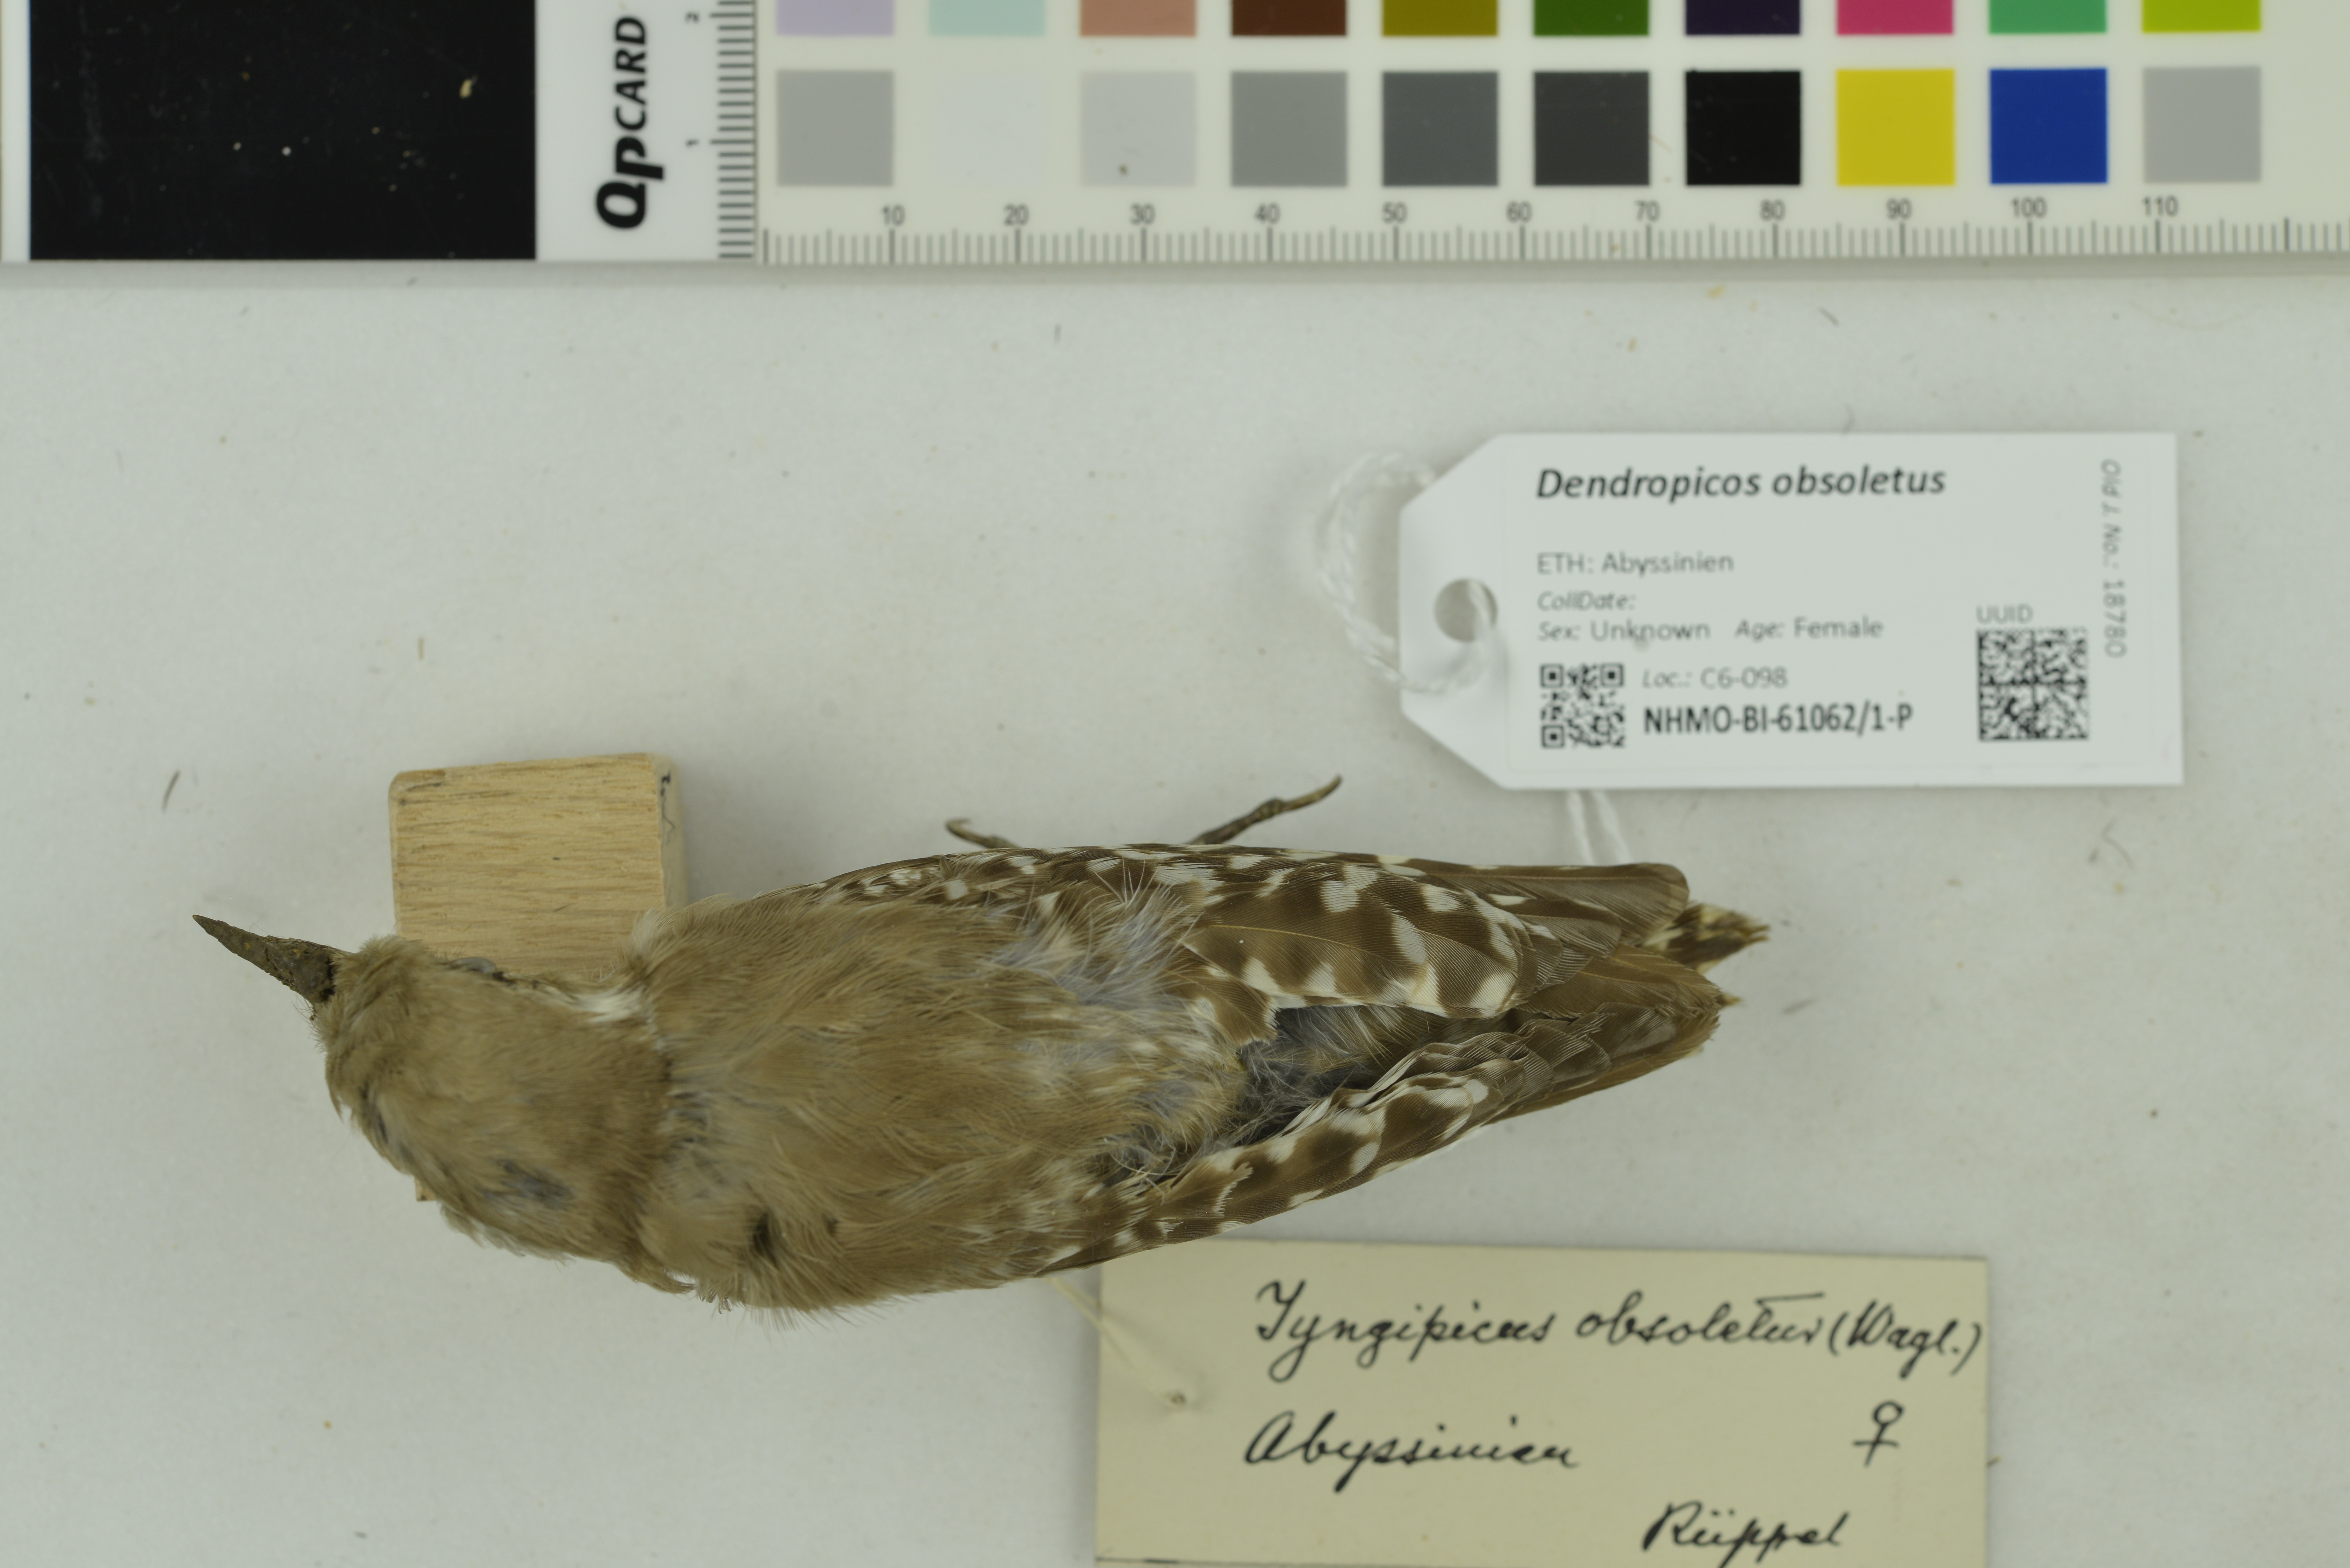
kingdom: Animalia
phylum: Chordata
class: Aves
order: Piciformes
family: Picidae
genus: Dendropicos
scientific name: Dendropicos obsoletus
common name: Brown-backed woodpecker
